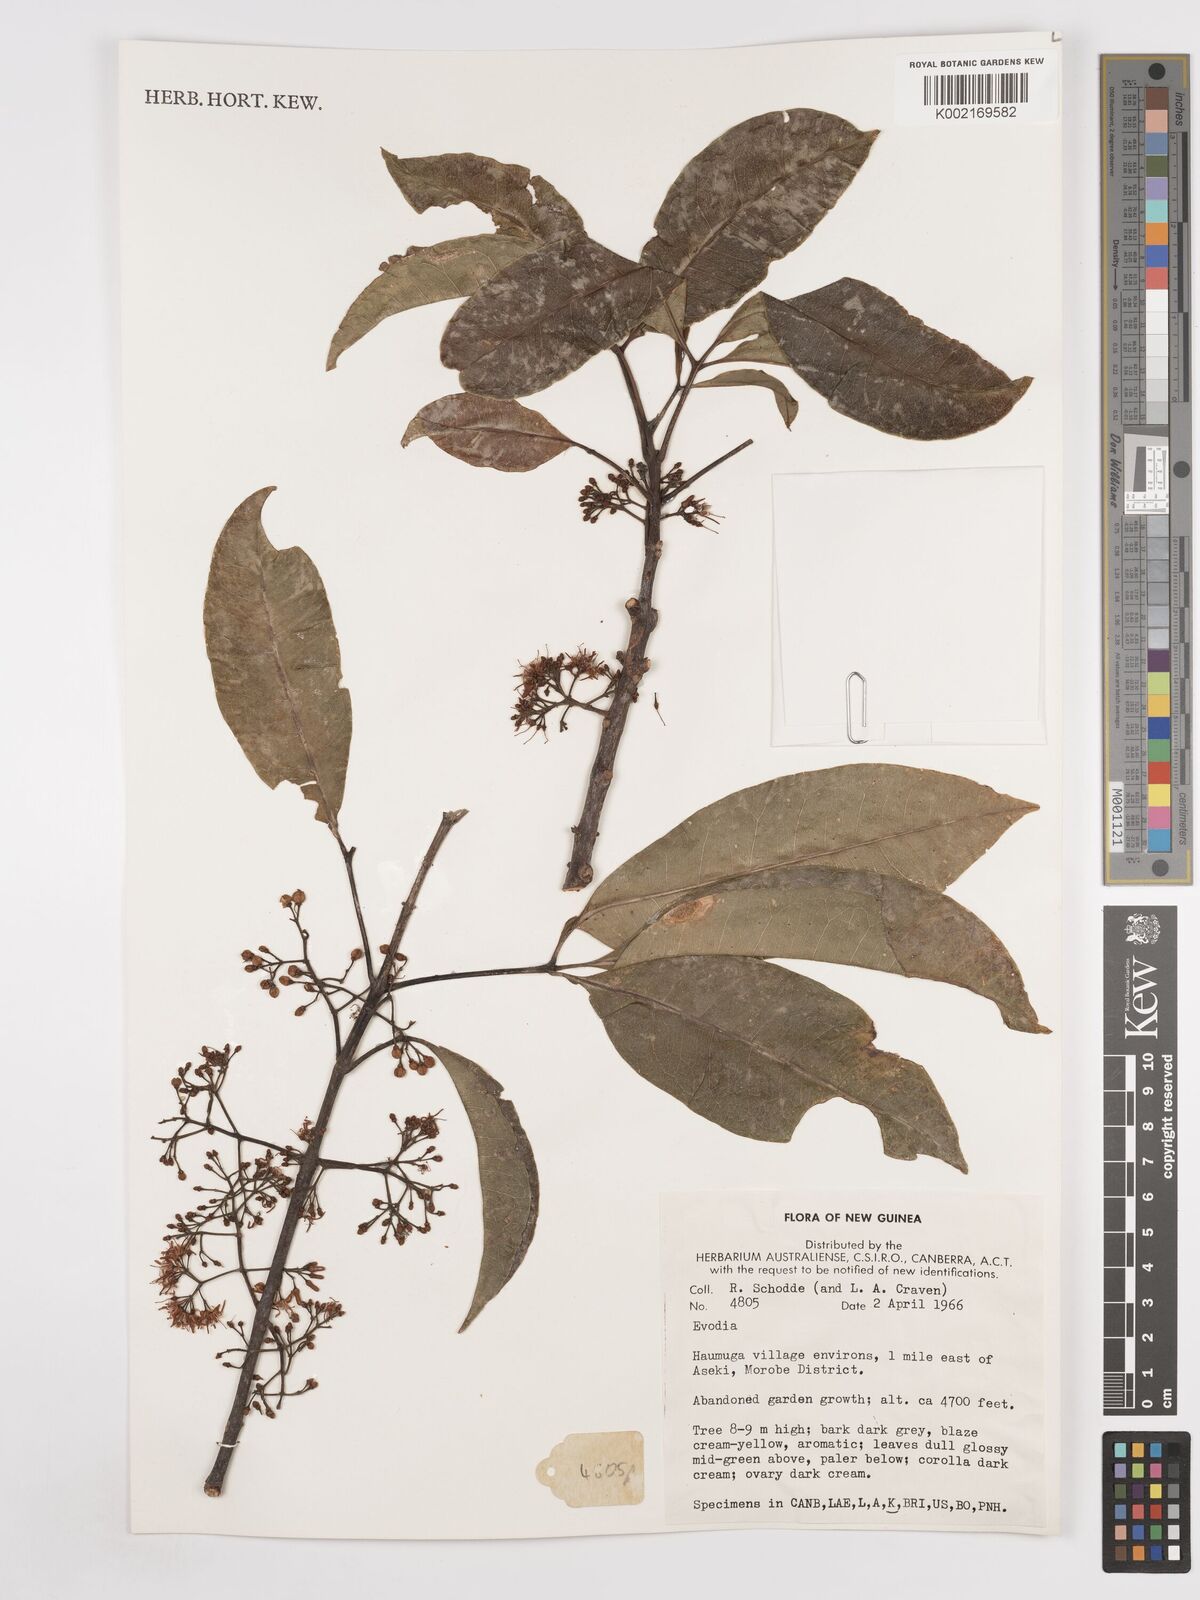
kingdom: Plantae
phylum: Tracheophyta
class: Magnoliopsida
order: Sapindales
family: Rutaceae
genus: Euodia
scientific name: Euodia
